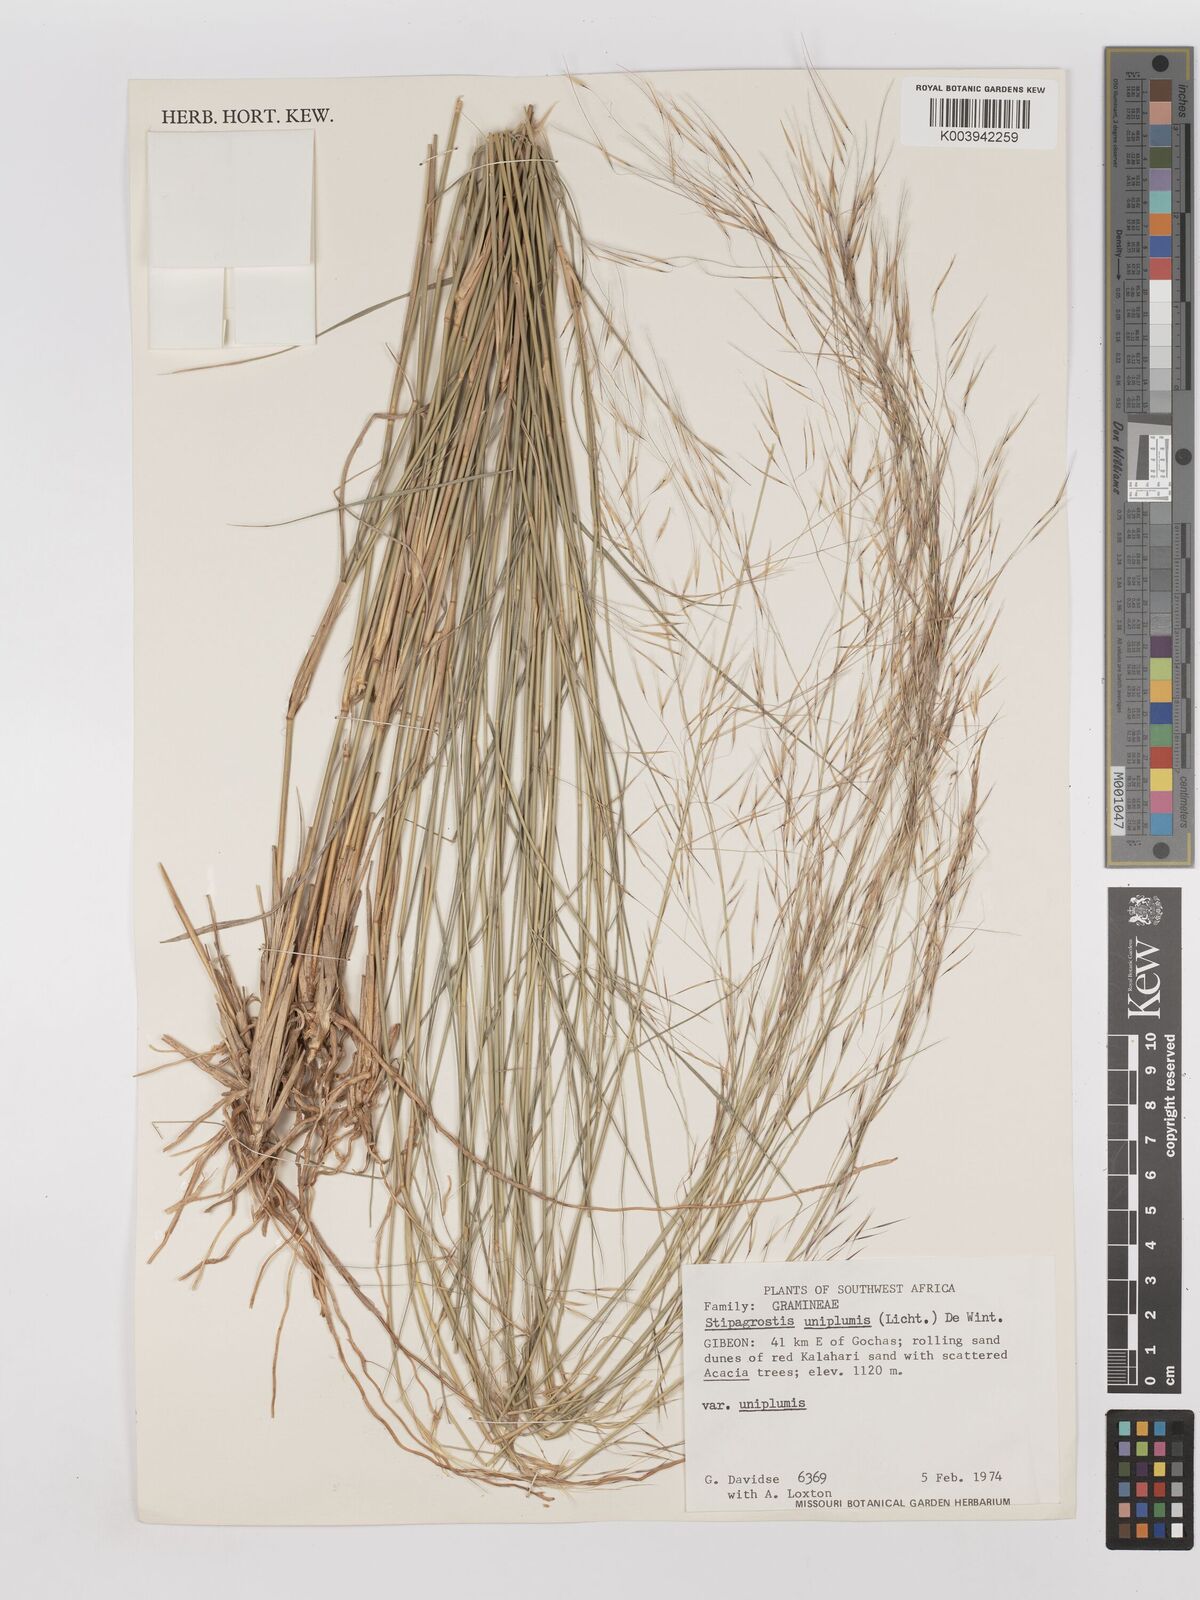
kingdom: Plantae
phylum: Tracheophyta
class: Liliopsida
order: Poales
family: Poaceae
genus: Stipagrostis
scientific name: Stipagrostis uniplumis
